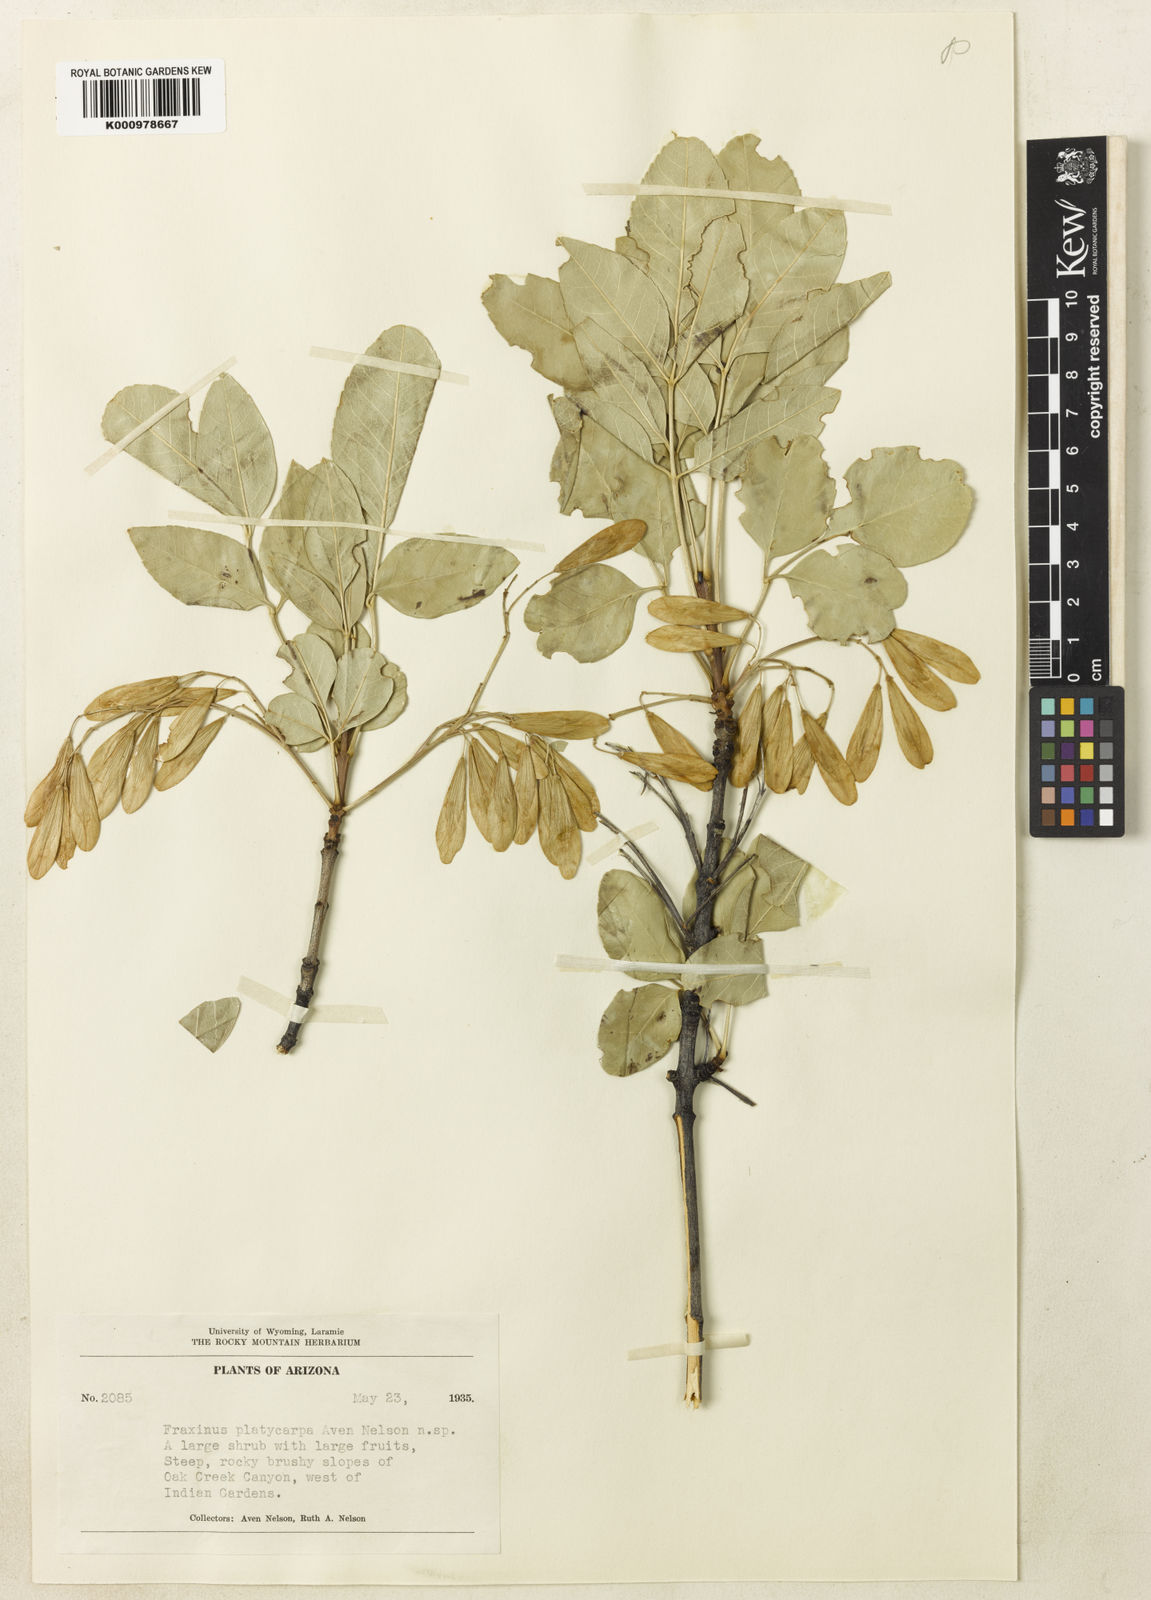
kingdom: Plantae
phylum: Tracheophyta
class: Magnoliopsida
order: Lamiales
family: Oleaceae
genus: Fraxinus
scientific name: Fraxinus caroliniana
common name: Carolina ash
